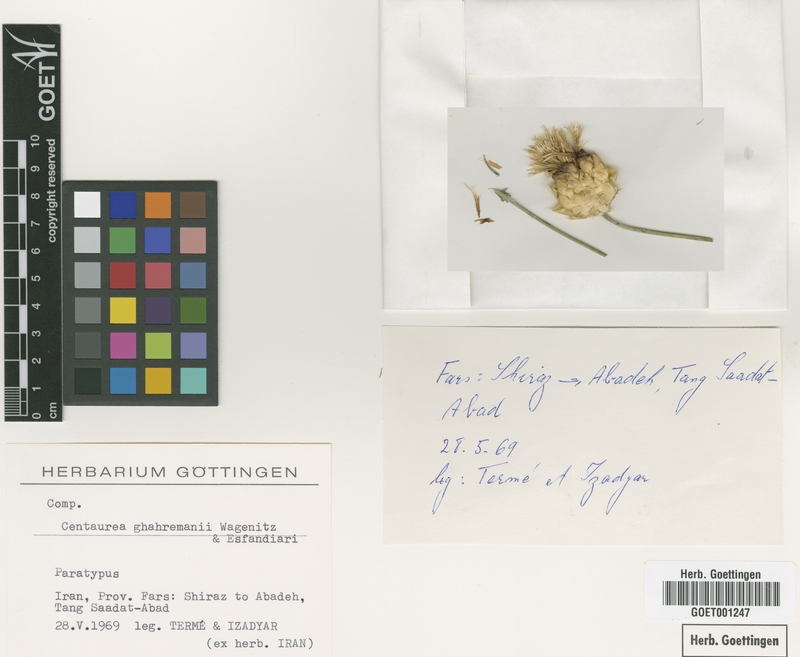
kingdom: Plantae
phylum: Tracheophyta
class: Magnoliopsida
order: Asterales
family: Asteraceae
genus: Centaurea
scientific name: Centaurea ghahremanii
